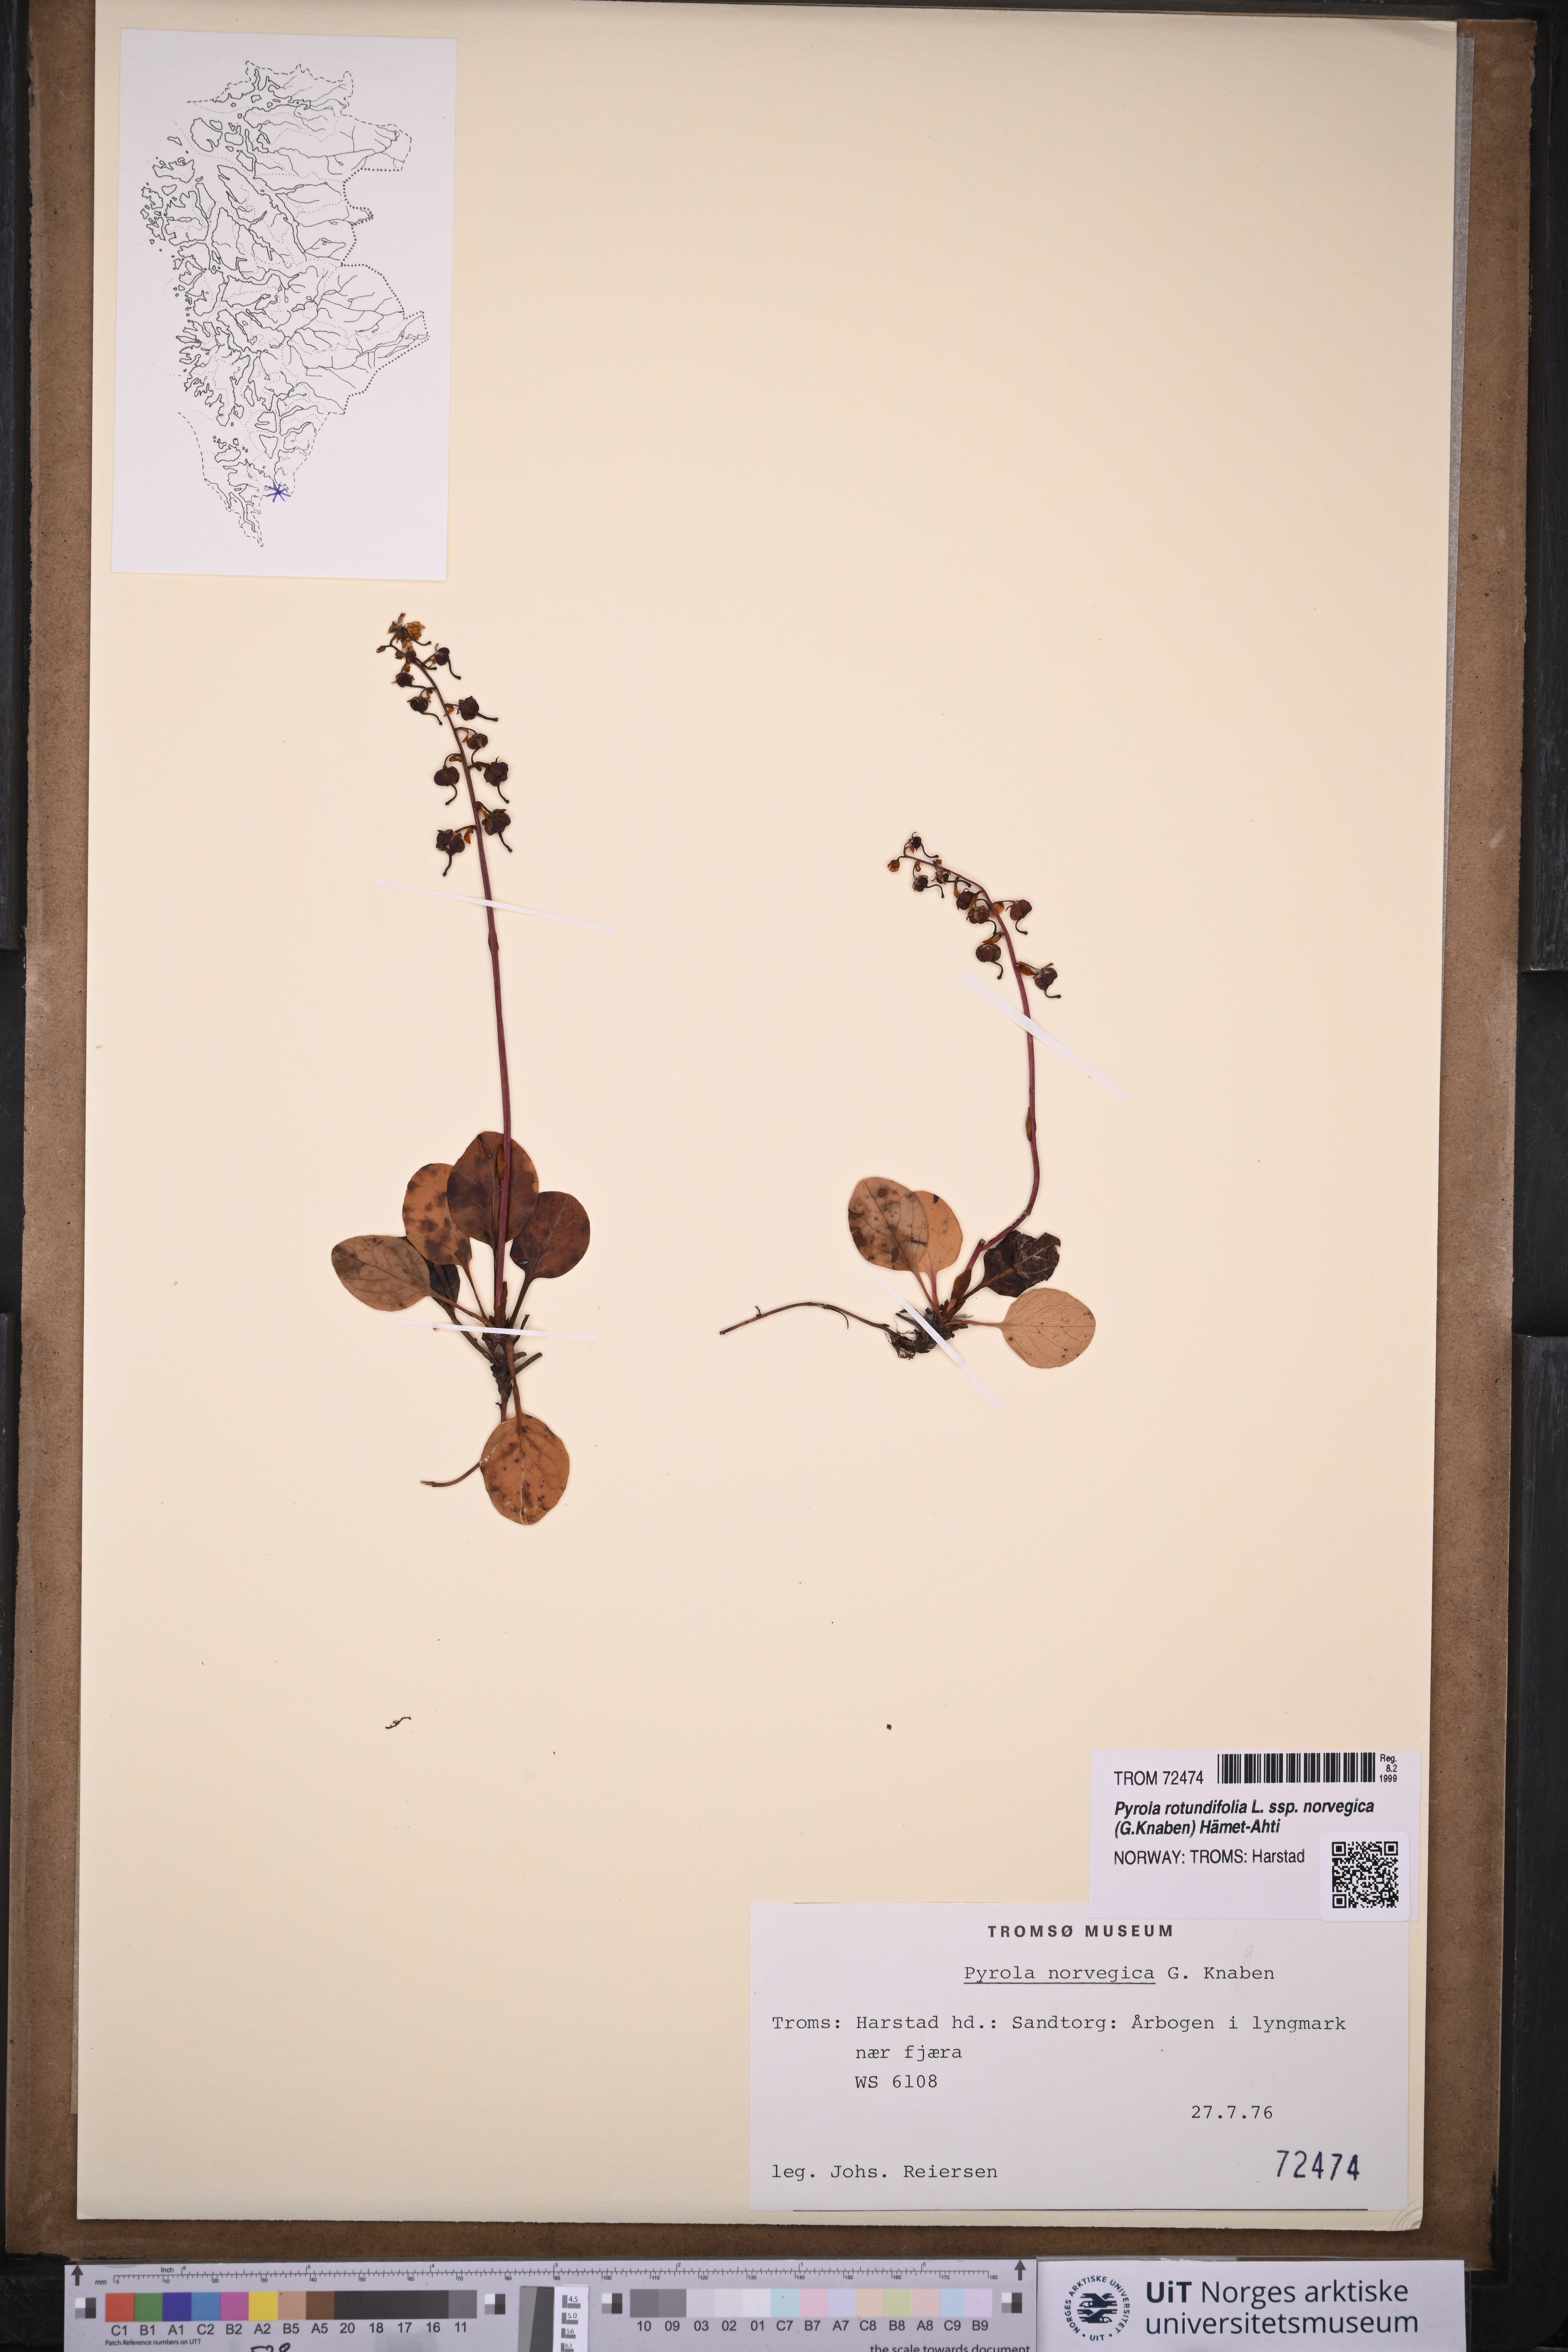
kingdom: Plantae
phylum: Tracheophyta
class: Magnoliopsida
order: Ericales
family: Ericaceae
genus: Pyrola
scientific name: Pyrola rotundifolia
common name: Round-leaved wintergreen
